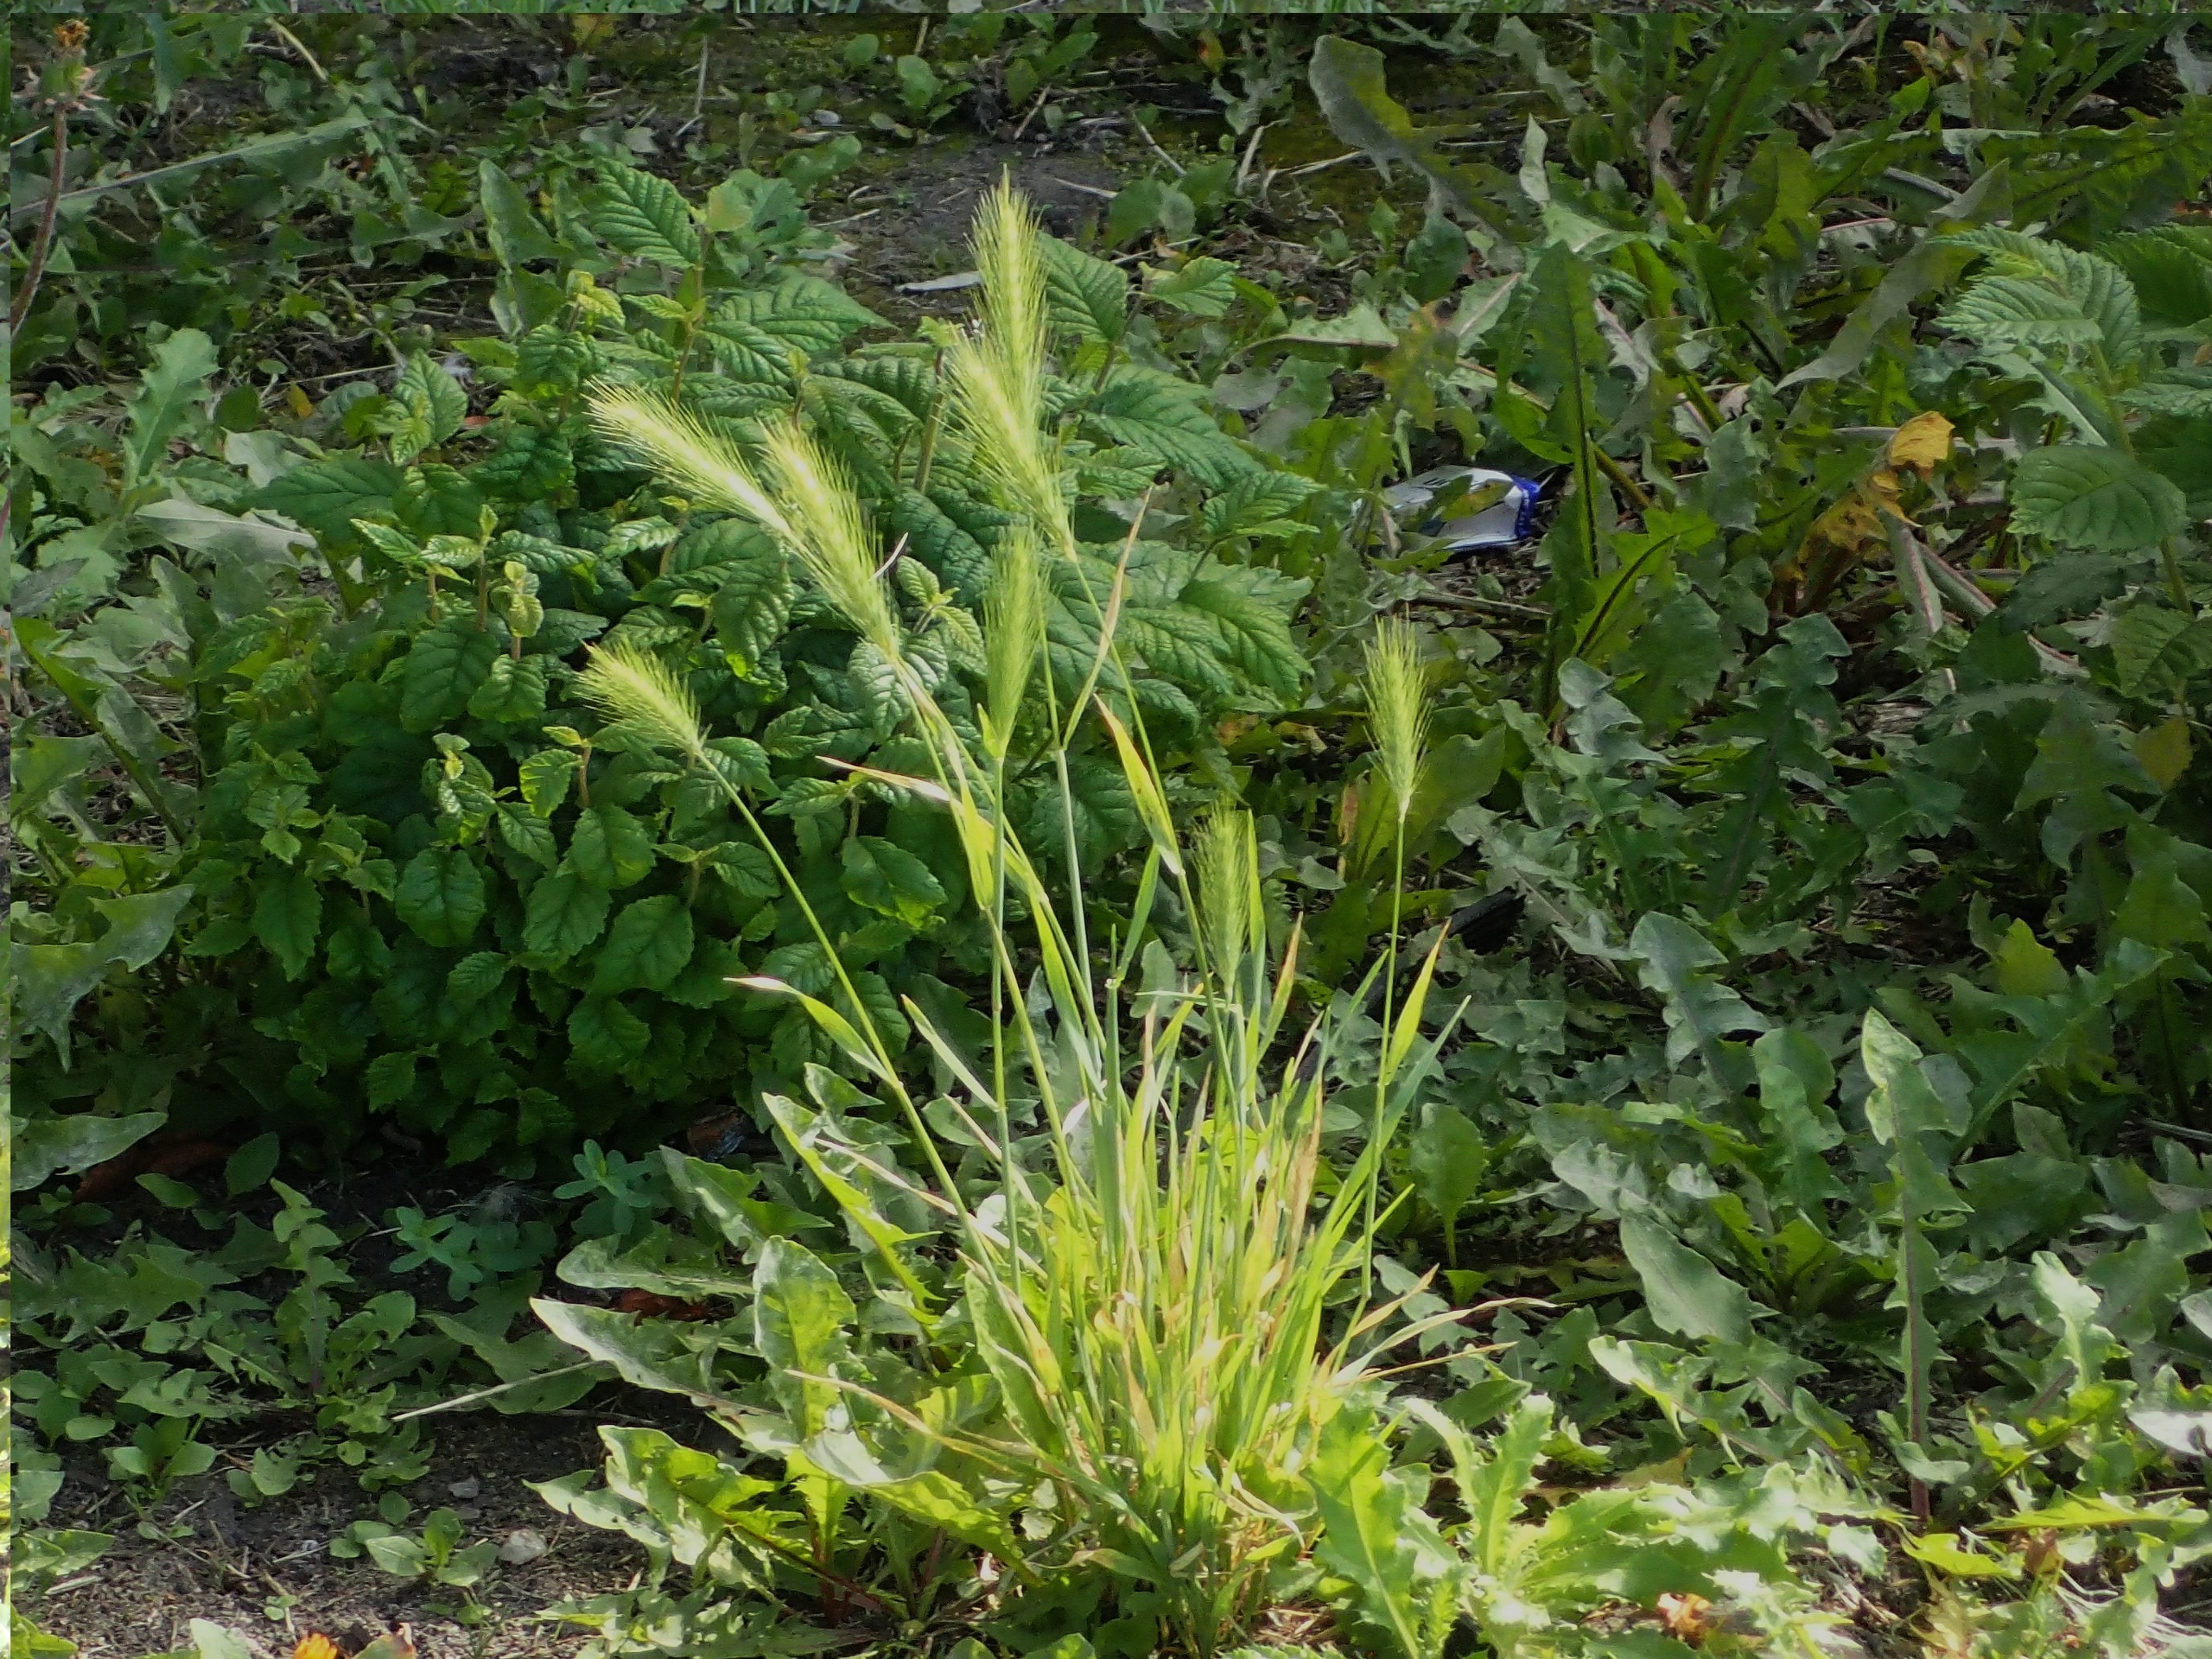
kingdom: Plantae
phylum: Tracheophyta
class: Liliopsida
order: Poales
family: Poaceae
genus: Hordeum
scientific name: Hordeum murinum
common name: Gold byg
